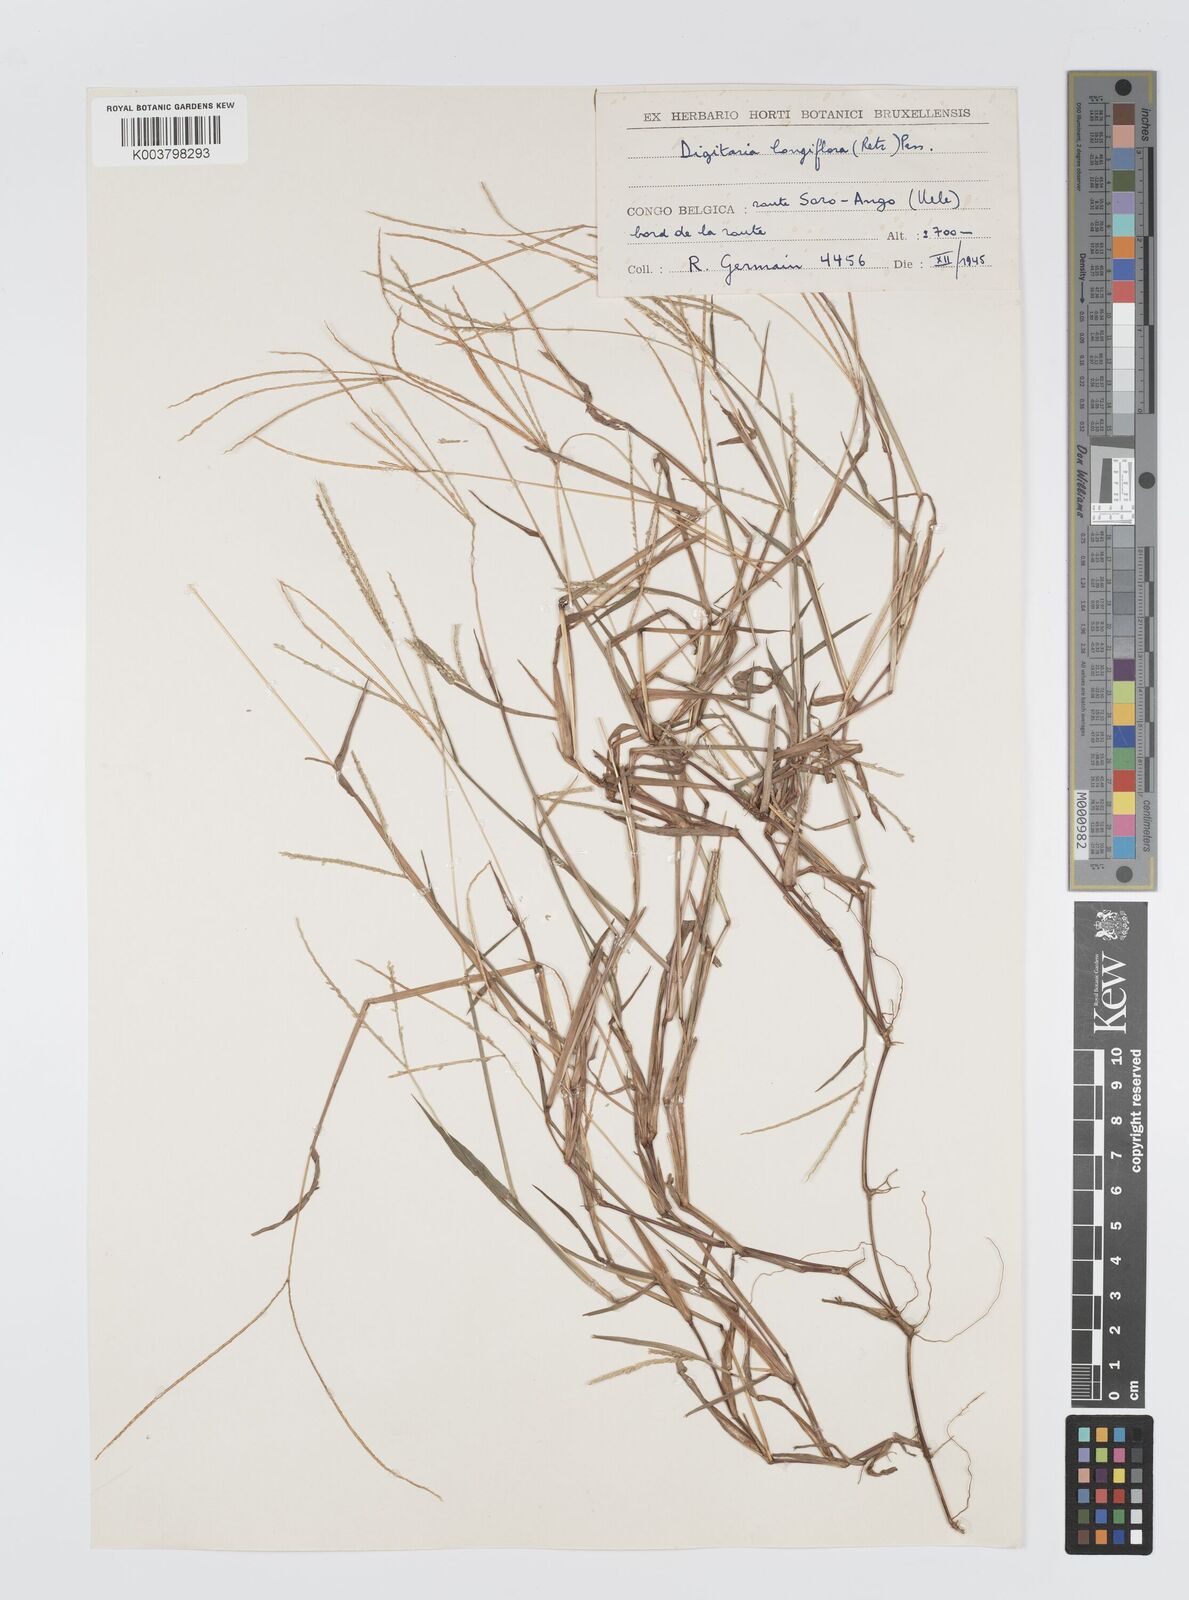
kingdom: Plantae
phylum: Tracheophyta
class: Liliopsida
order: Poales
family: Poaceae
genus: Digitaria
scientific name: Digitaria longiflora
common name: Wire crabgrass
